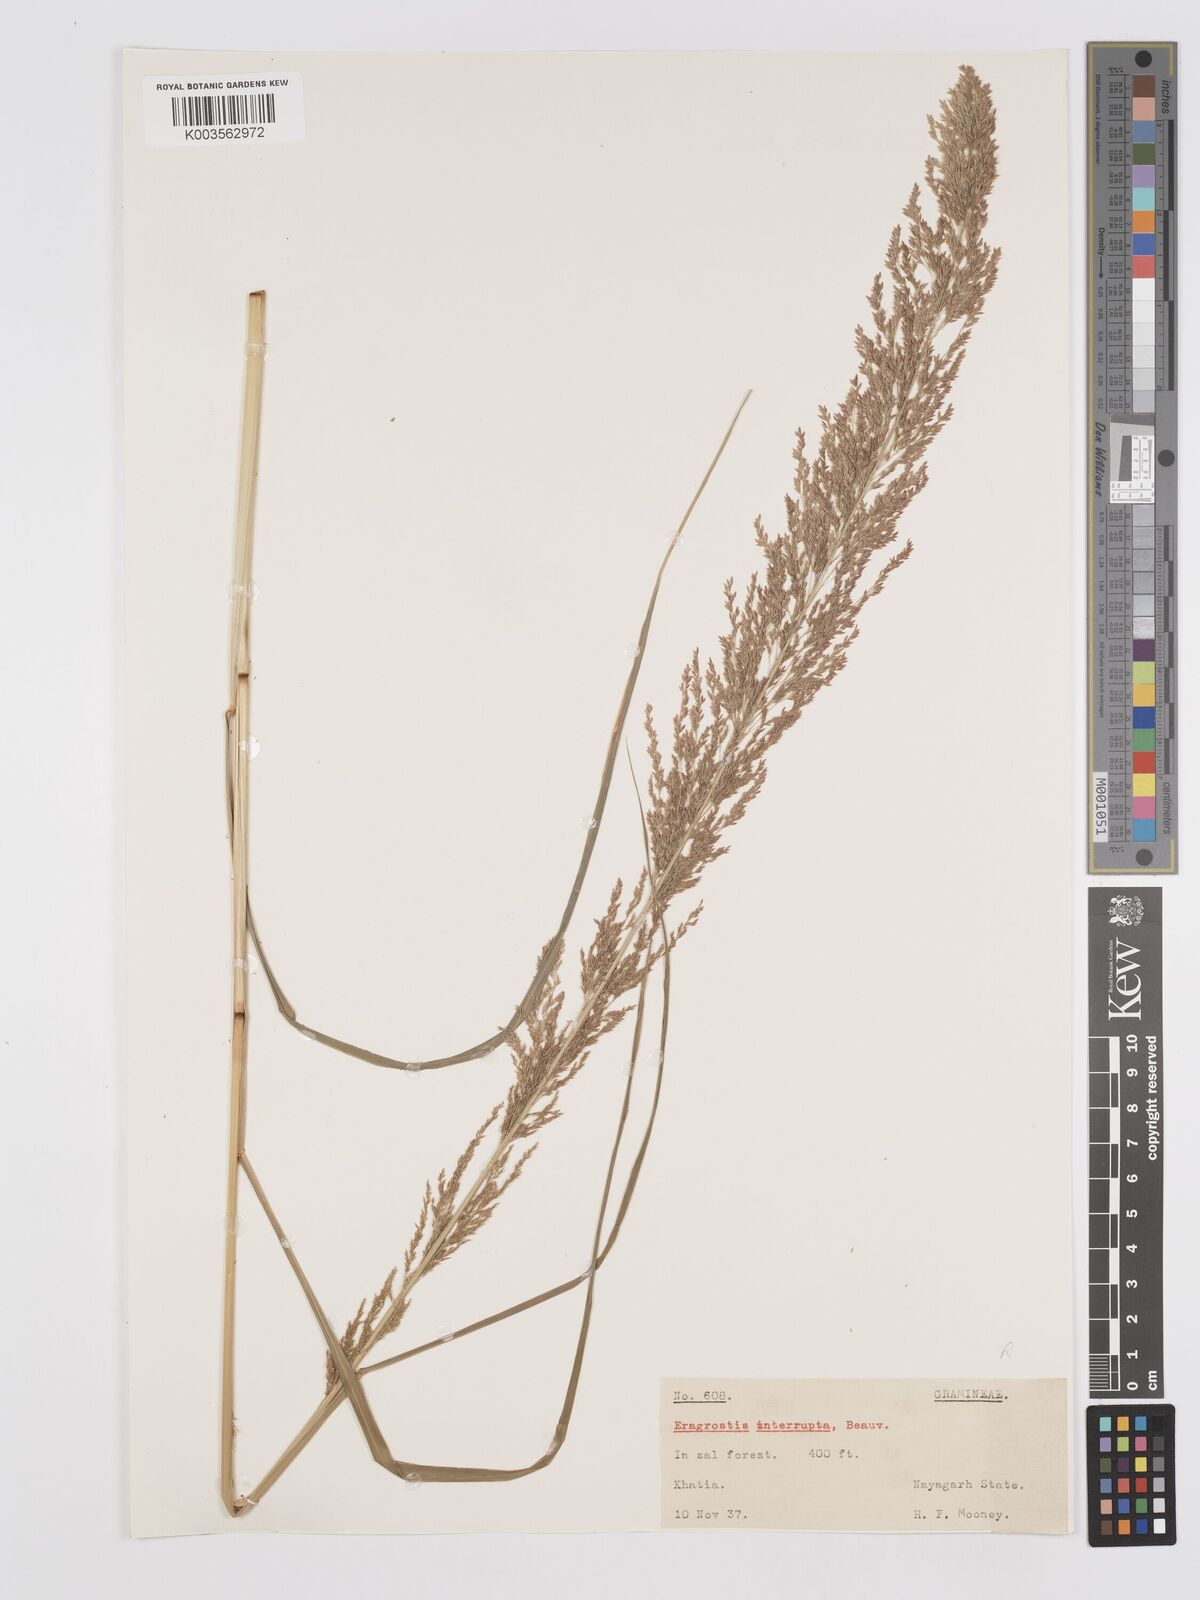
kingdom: Plantae
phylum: Tracheophyta
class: Liliopsida
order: Poales
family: Poaceae
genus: Eragrostis
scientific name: Eragrostis japonica
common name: Pond lovegrass
